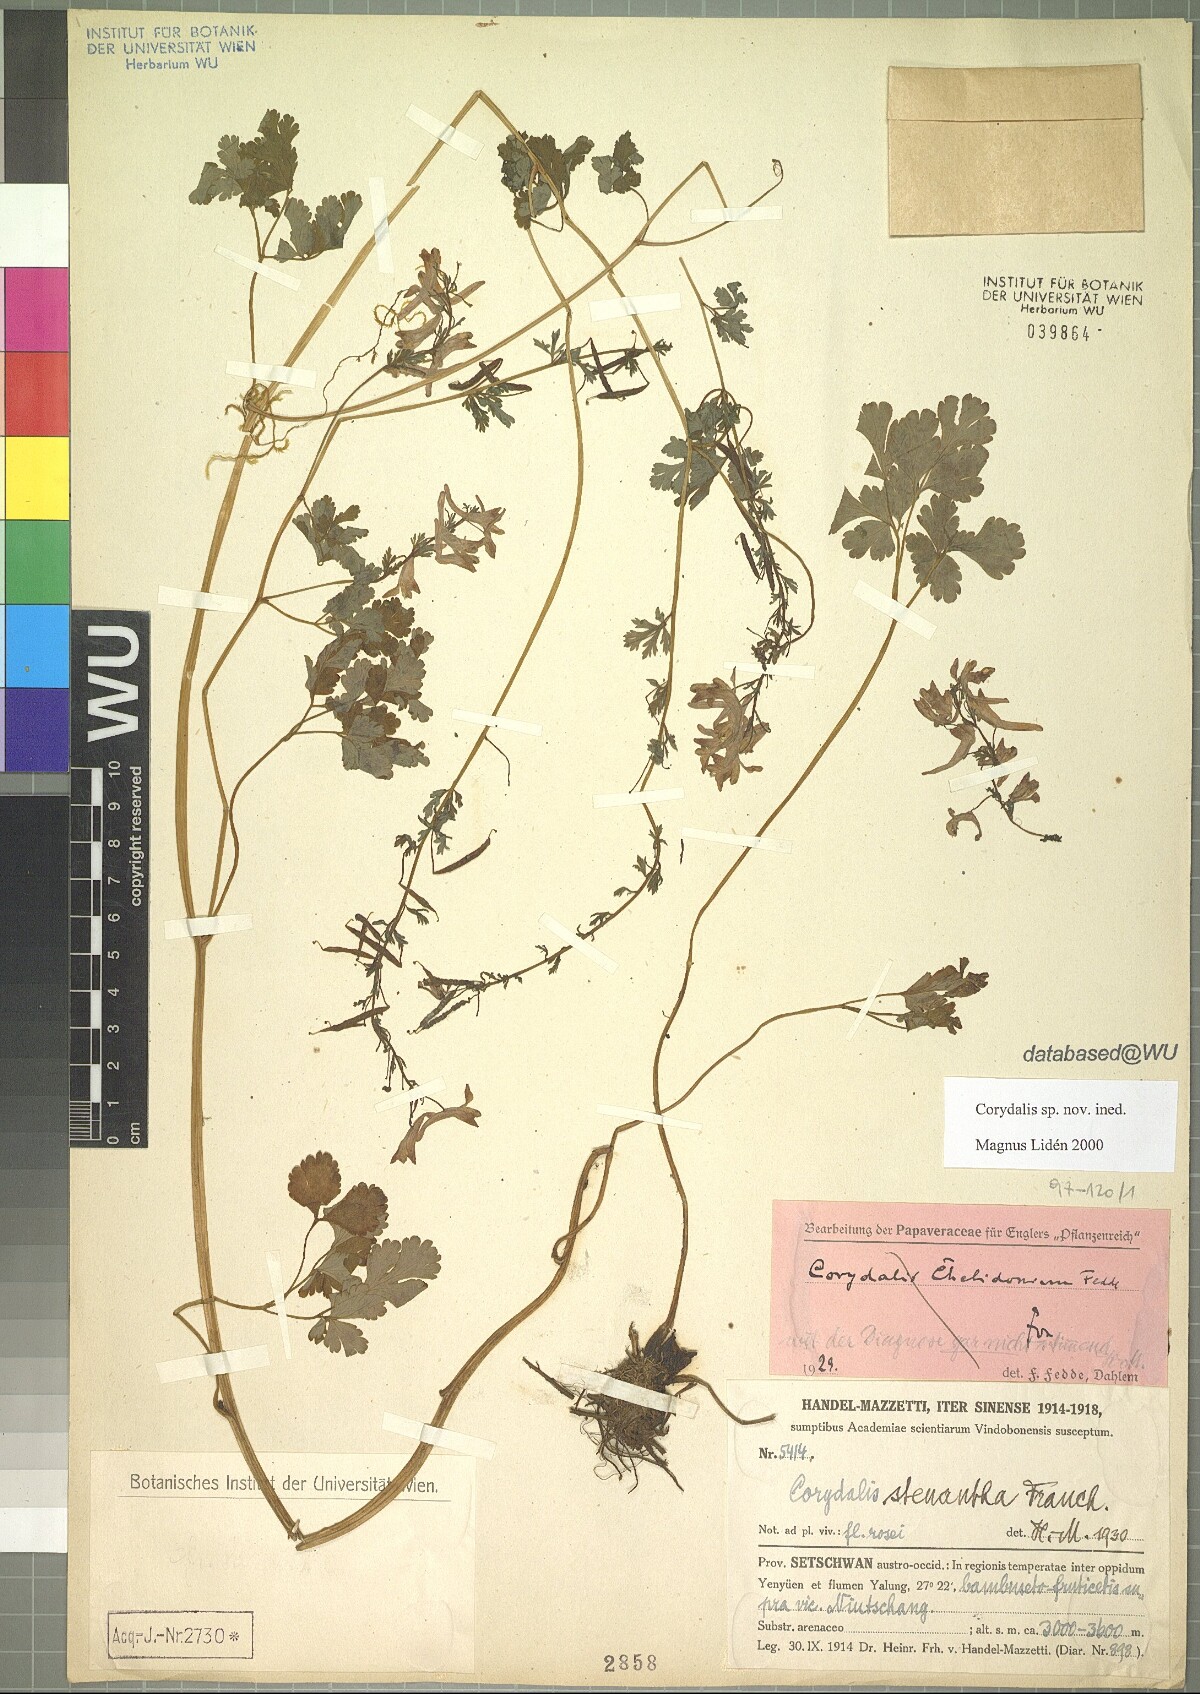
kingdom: Plantae
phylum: Tracheophyta
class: Magnoliopsida
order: Ranunculales
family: Papaveraceae
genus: Corydalis
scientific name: Corydalis
